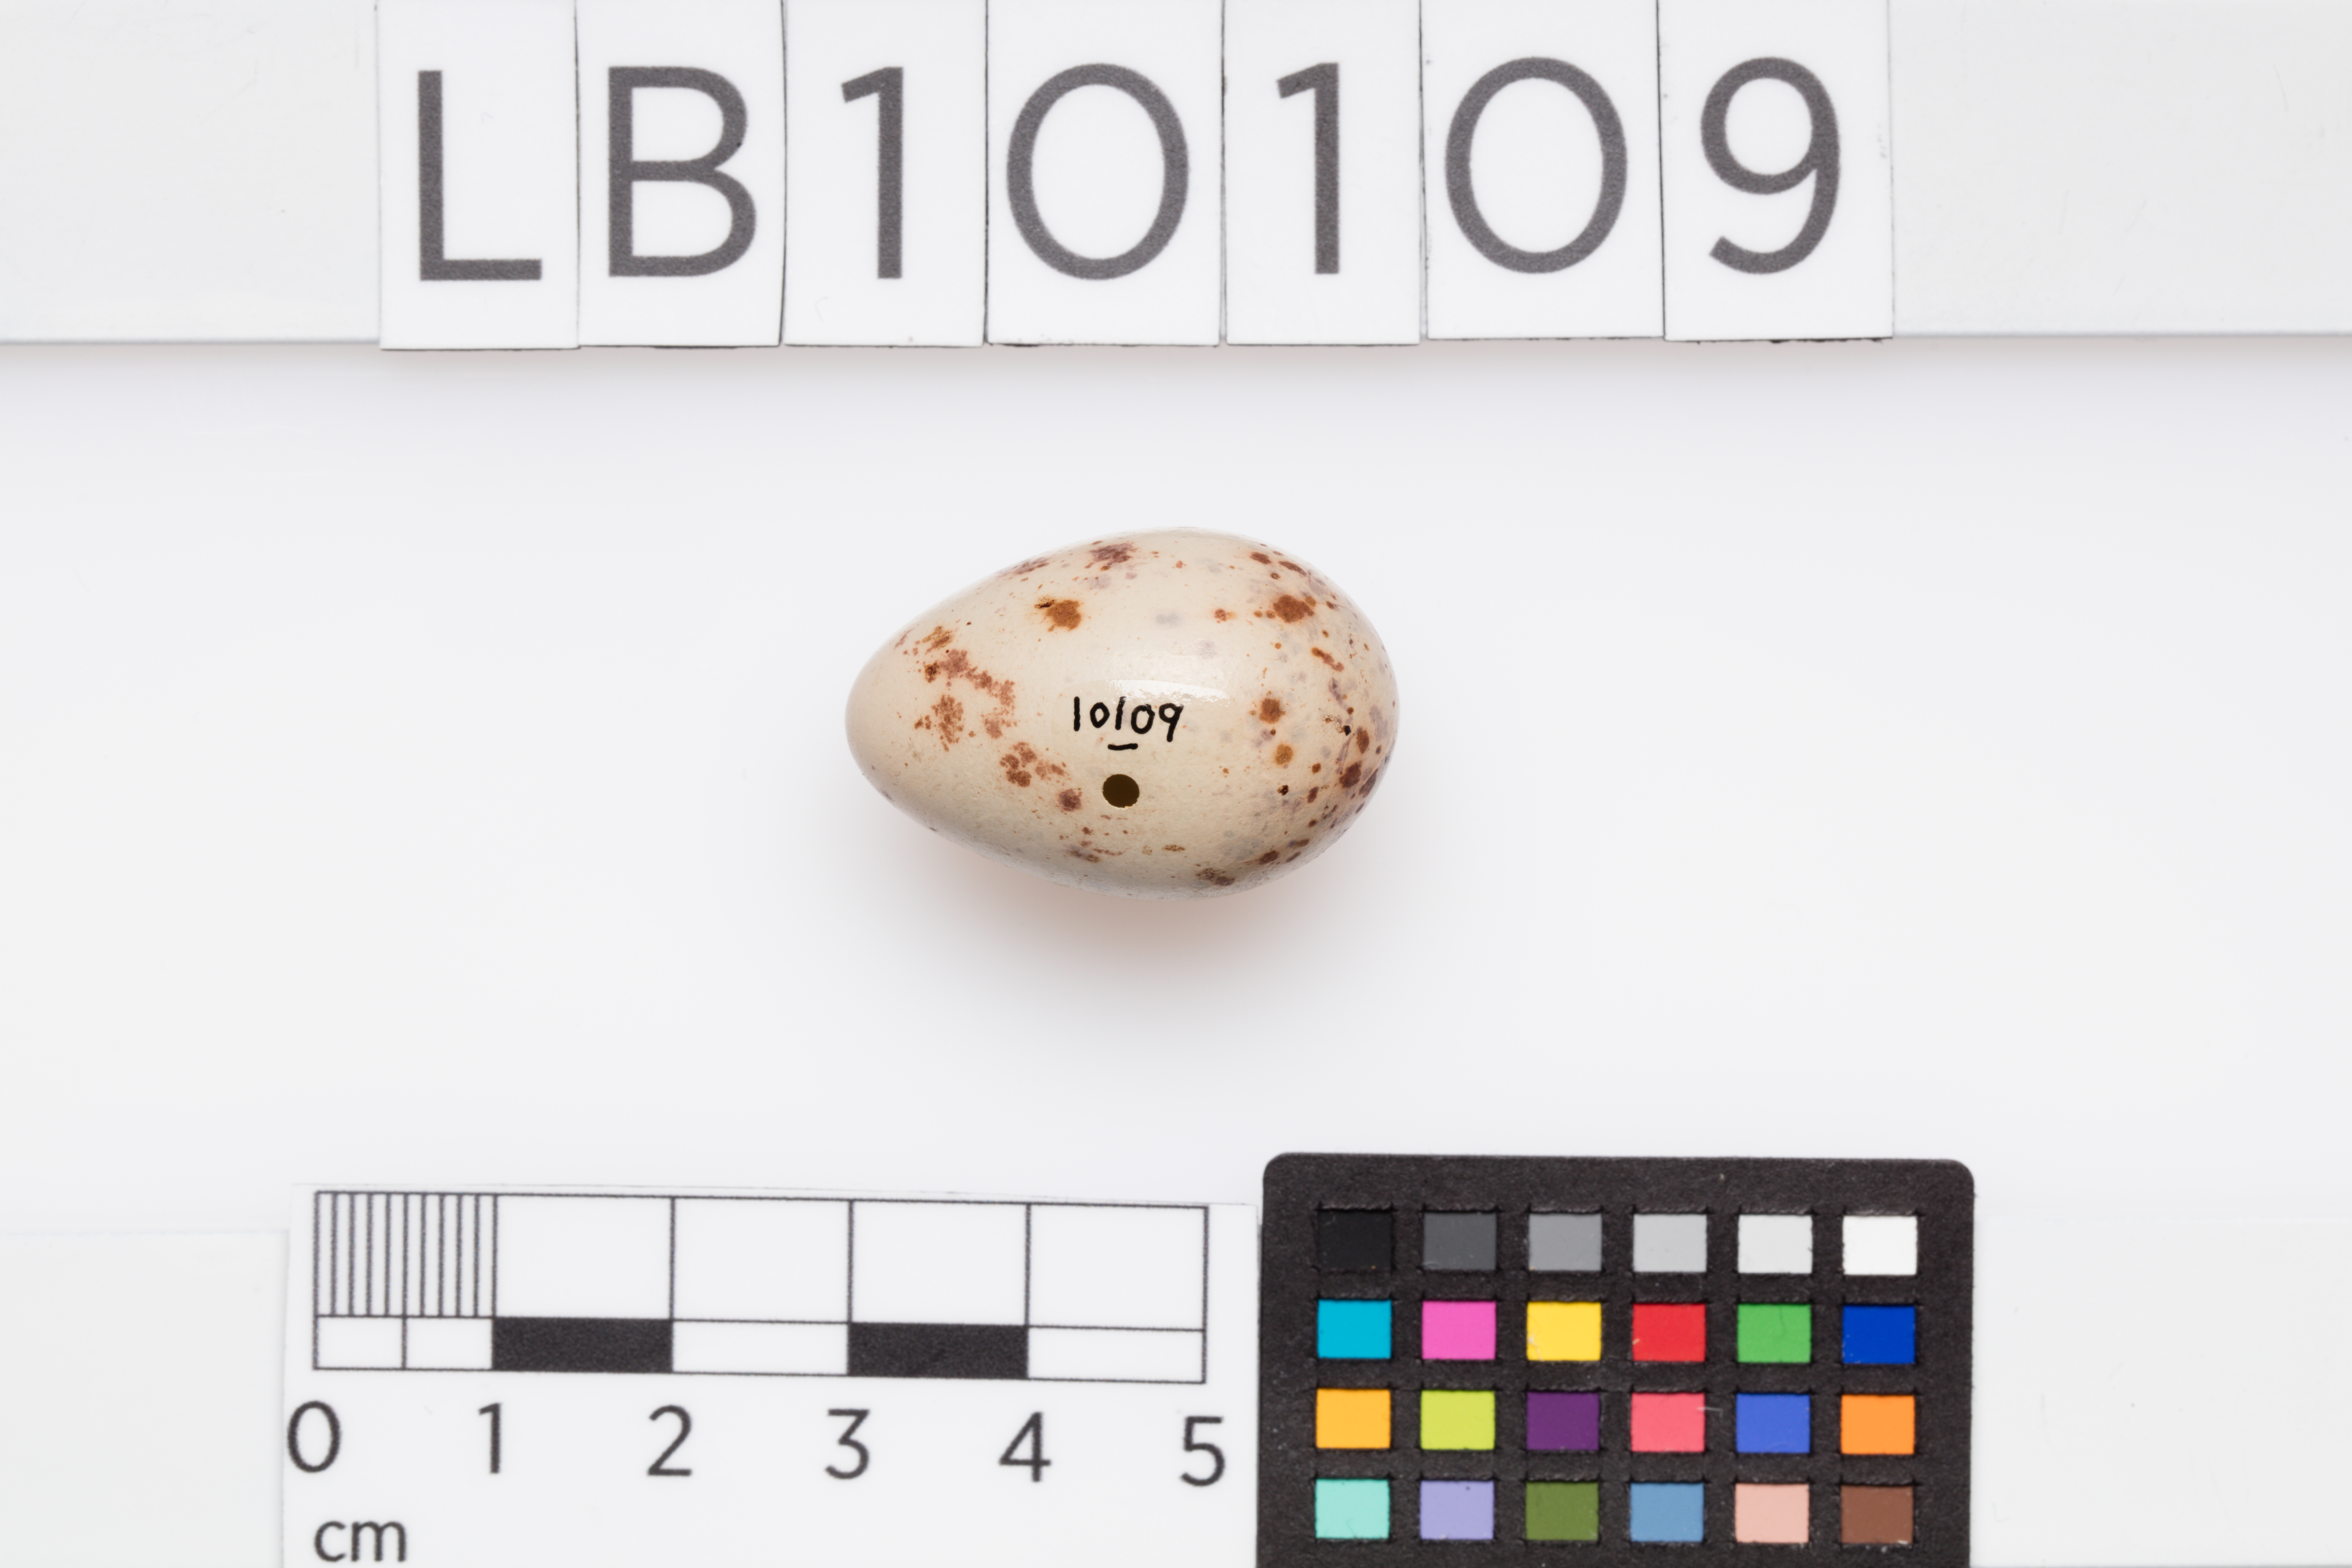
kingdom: Animalia
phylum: Chordata
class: Aves
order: Passeriformes
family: Turdidae
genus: Turdus
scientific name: Turdus viscivorus
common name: Mistle thrush
